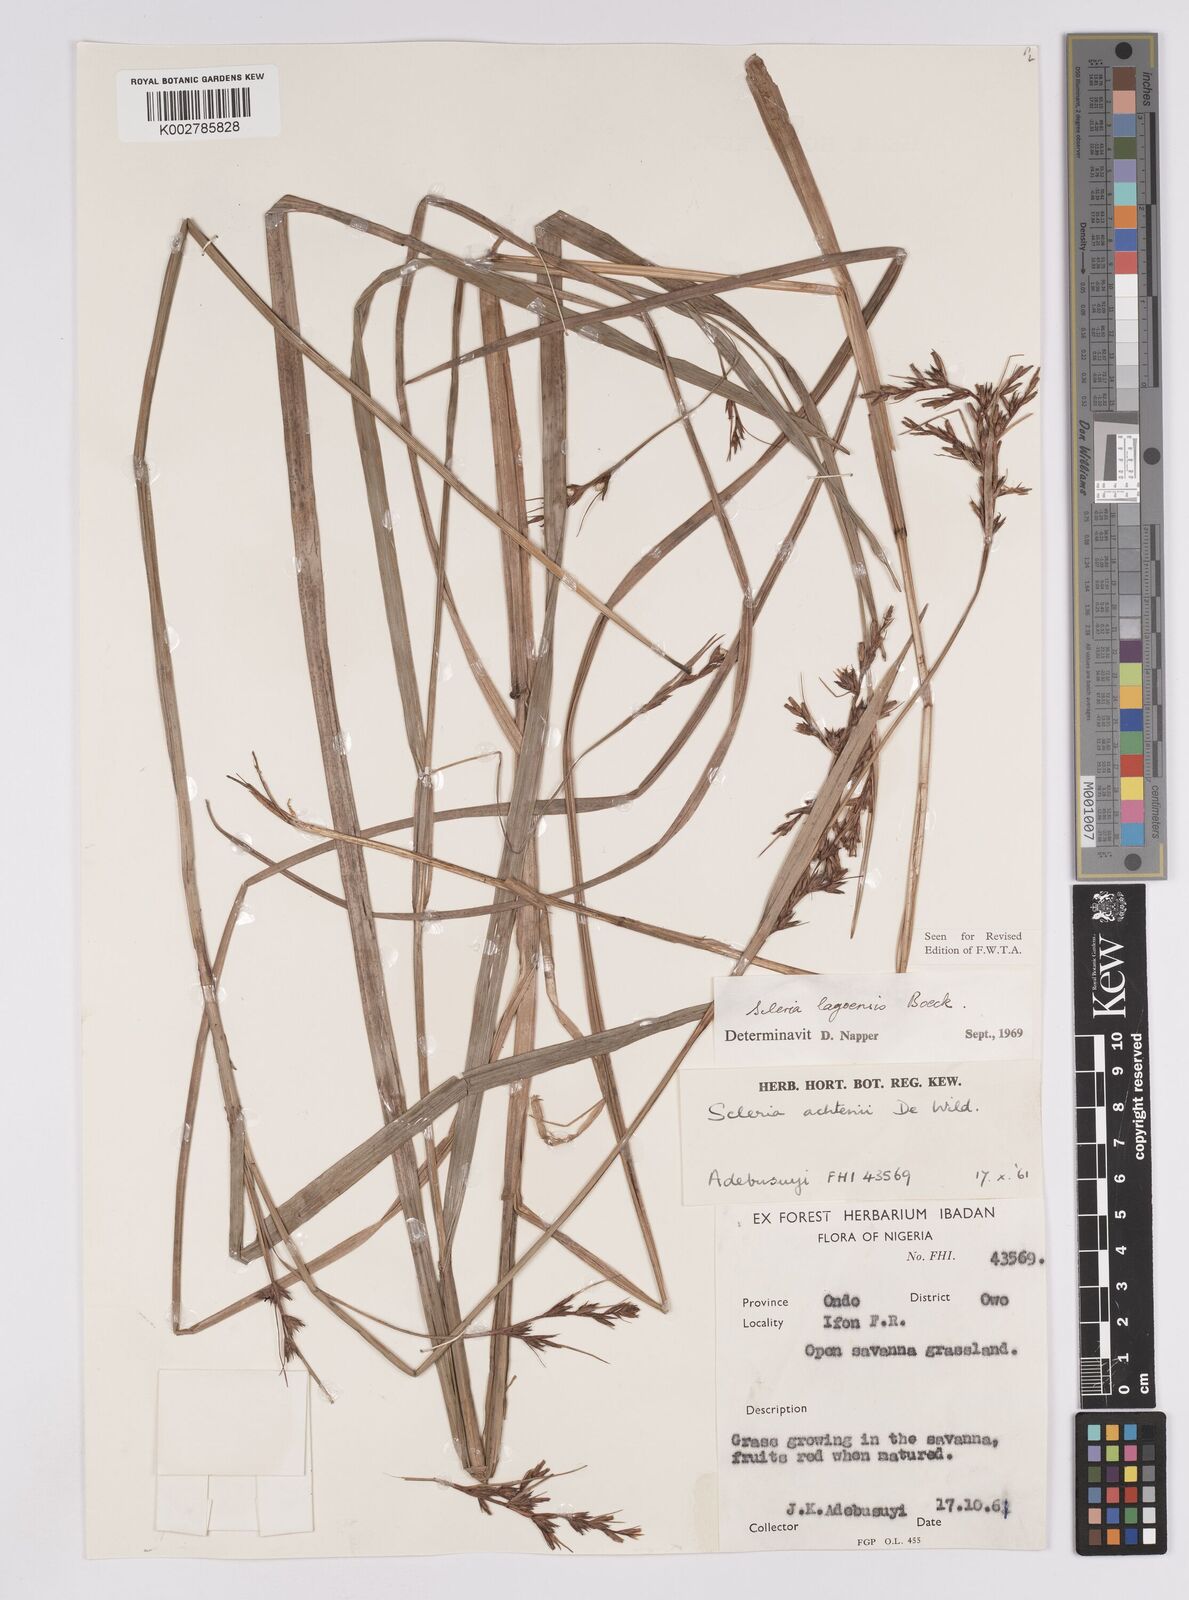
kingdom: Plantae
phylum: Tracheophyta
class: Liliopsida
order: Poales
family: Cyperaceae
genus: Scleria
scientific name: Scleria lagoensis
